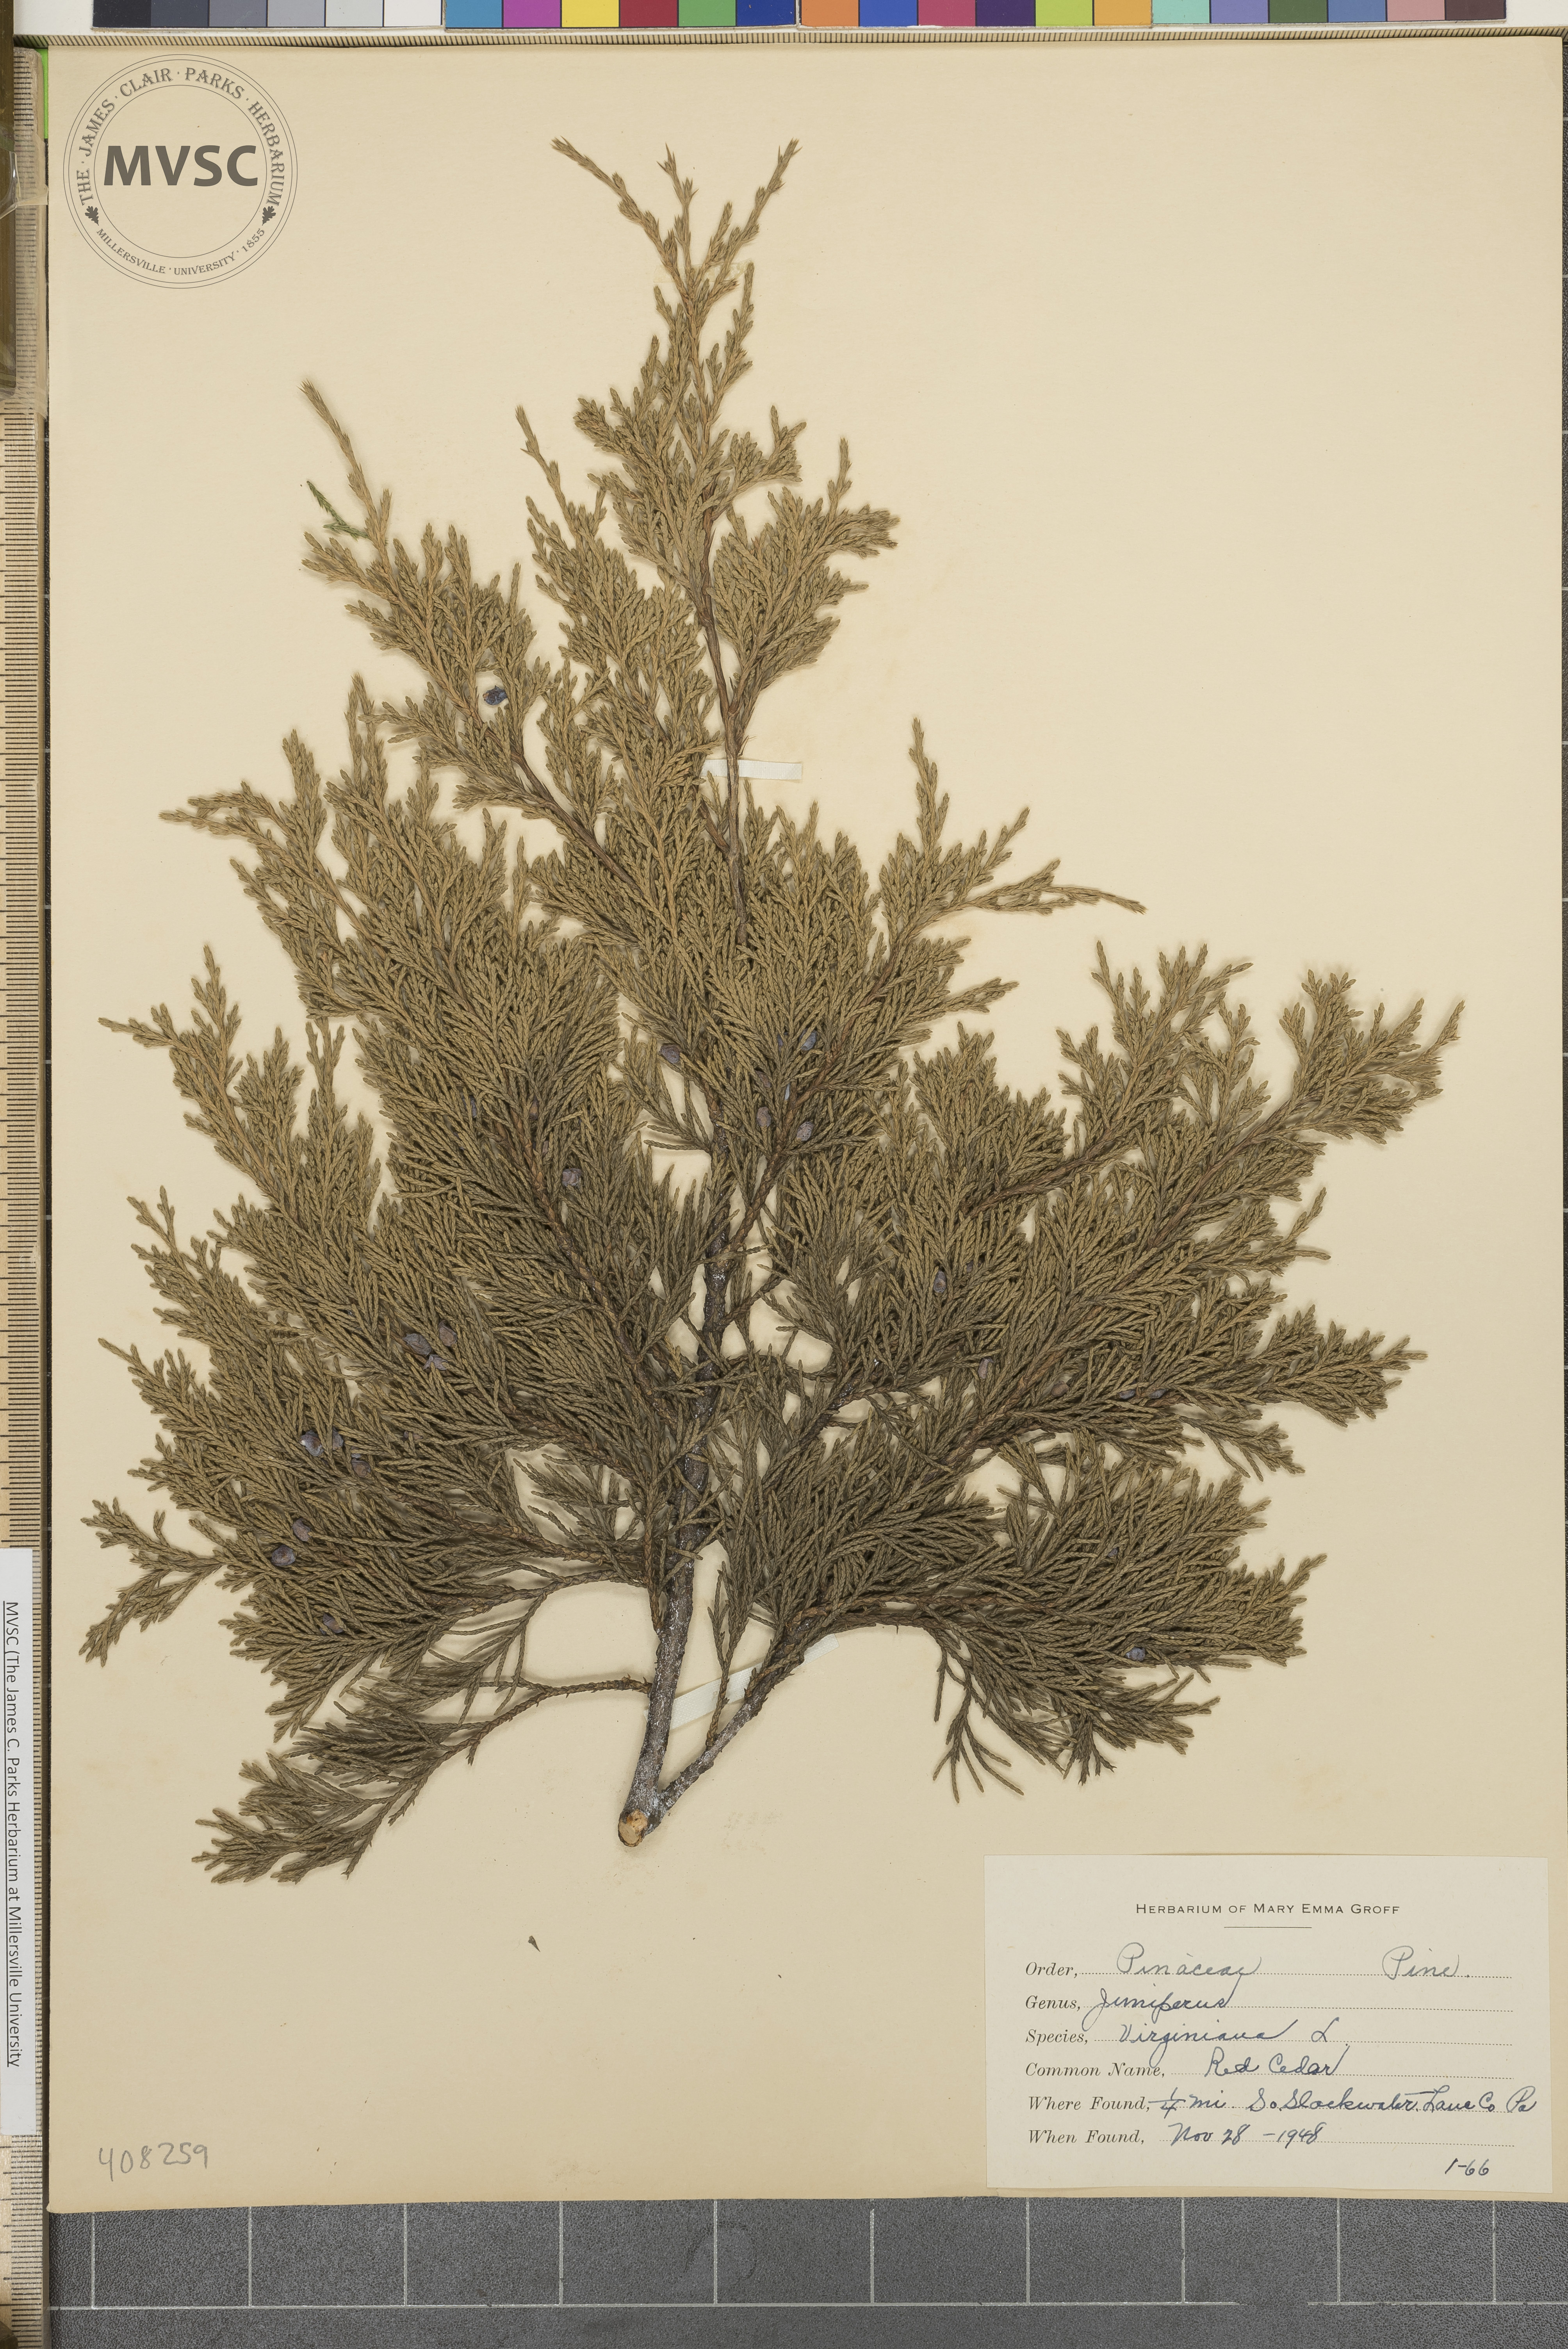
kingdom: Plantae
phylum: Tracheophyta
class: Pinopsida
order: Pinales
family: Cupressaceae
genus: Juniperus
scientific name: Juniperus virginiana
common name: Red juniper
